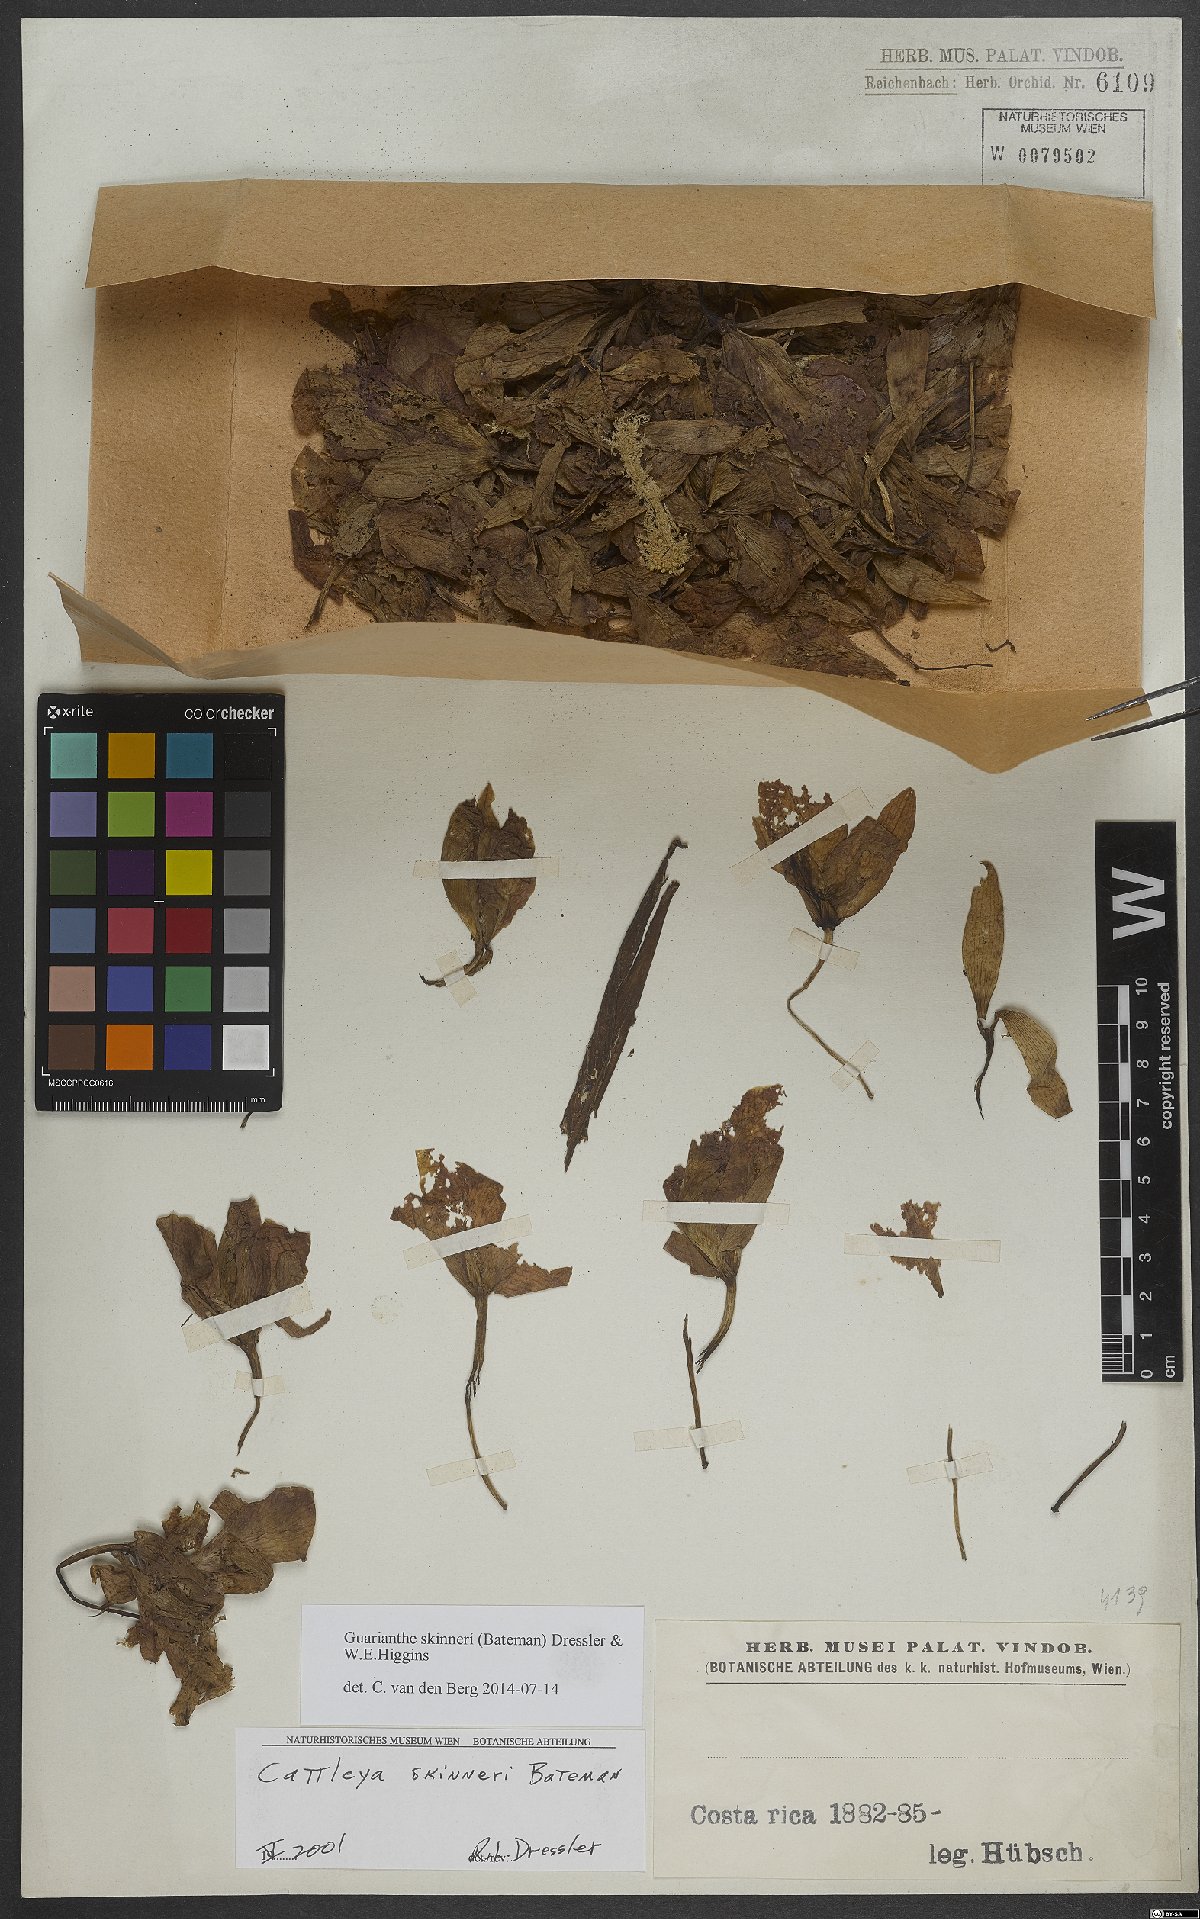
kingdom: Plantae
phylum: Tracheophyta
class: Liliopsida
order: Asparagales
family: Orchidaceae
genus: Guarianthe
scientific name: Guarianthe skinneri
